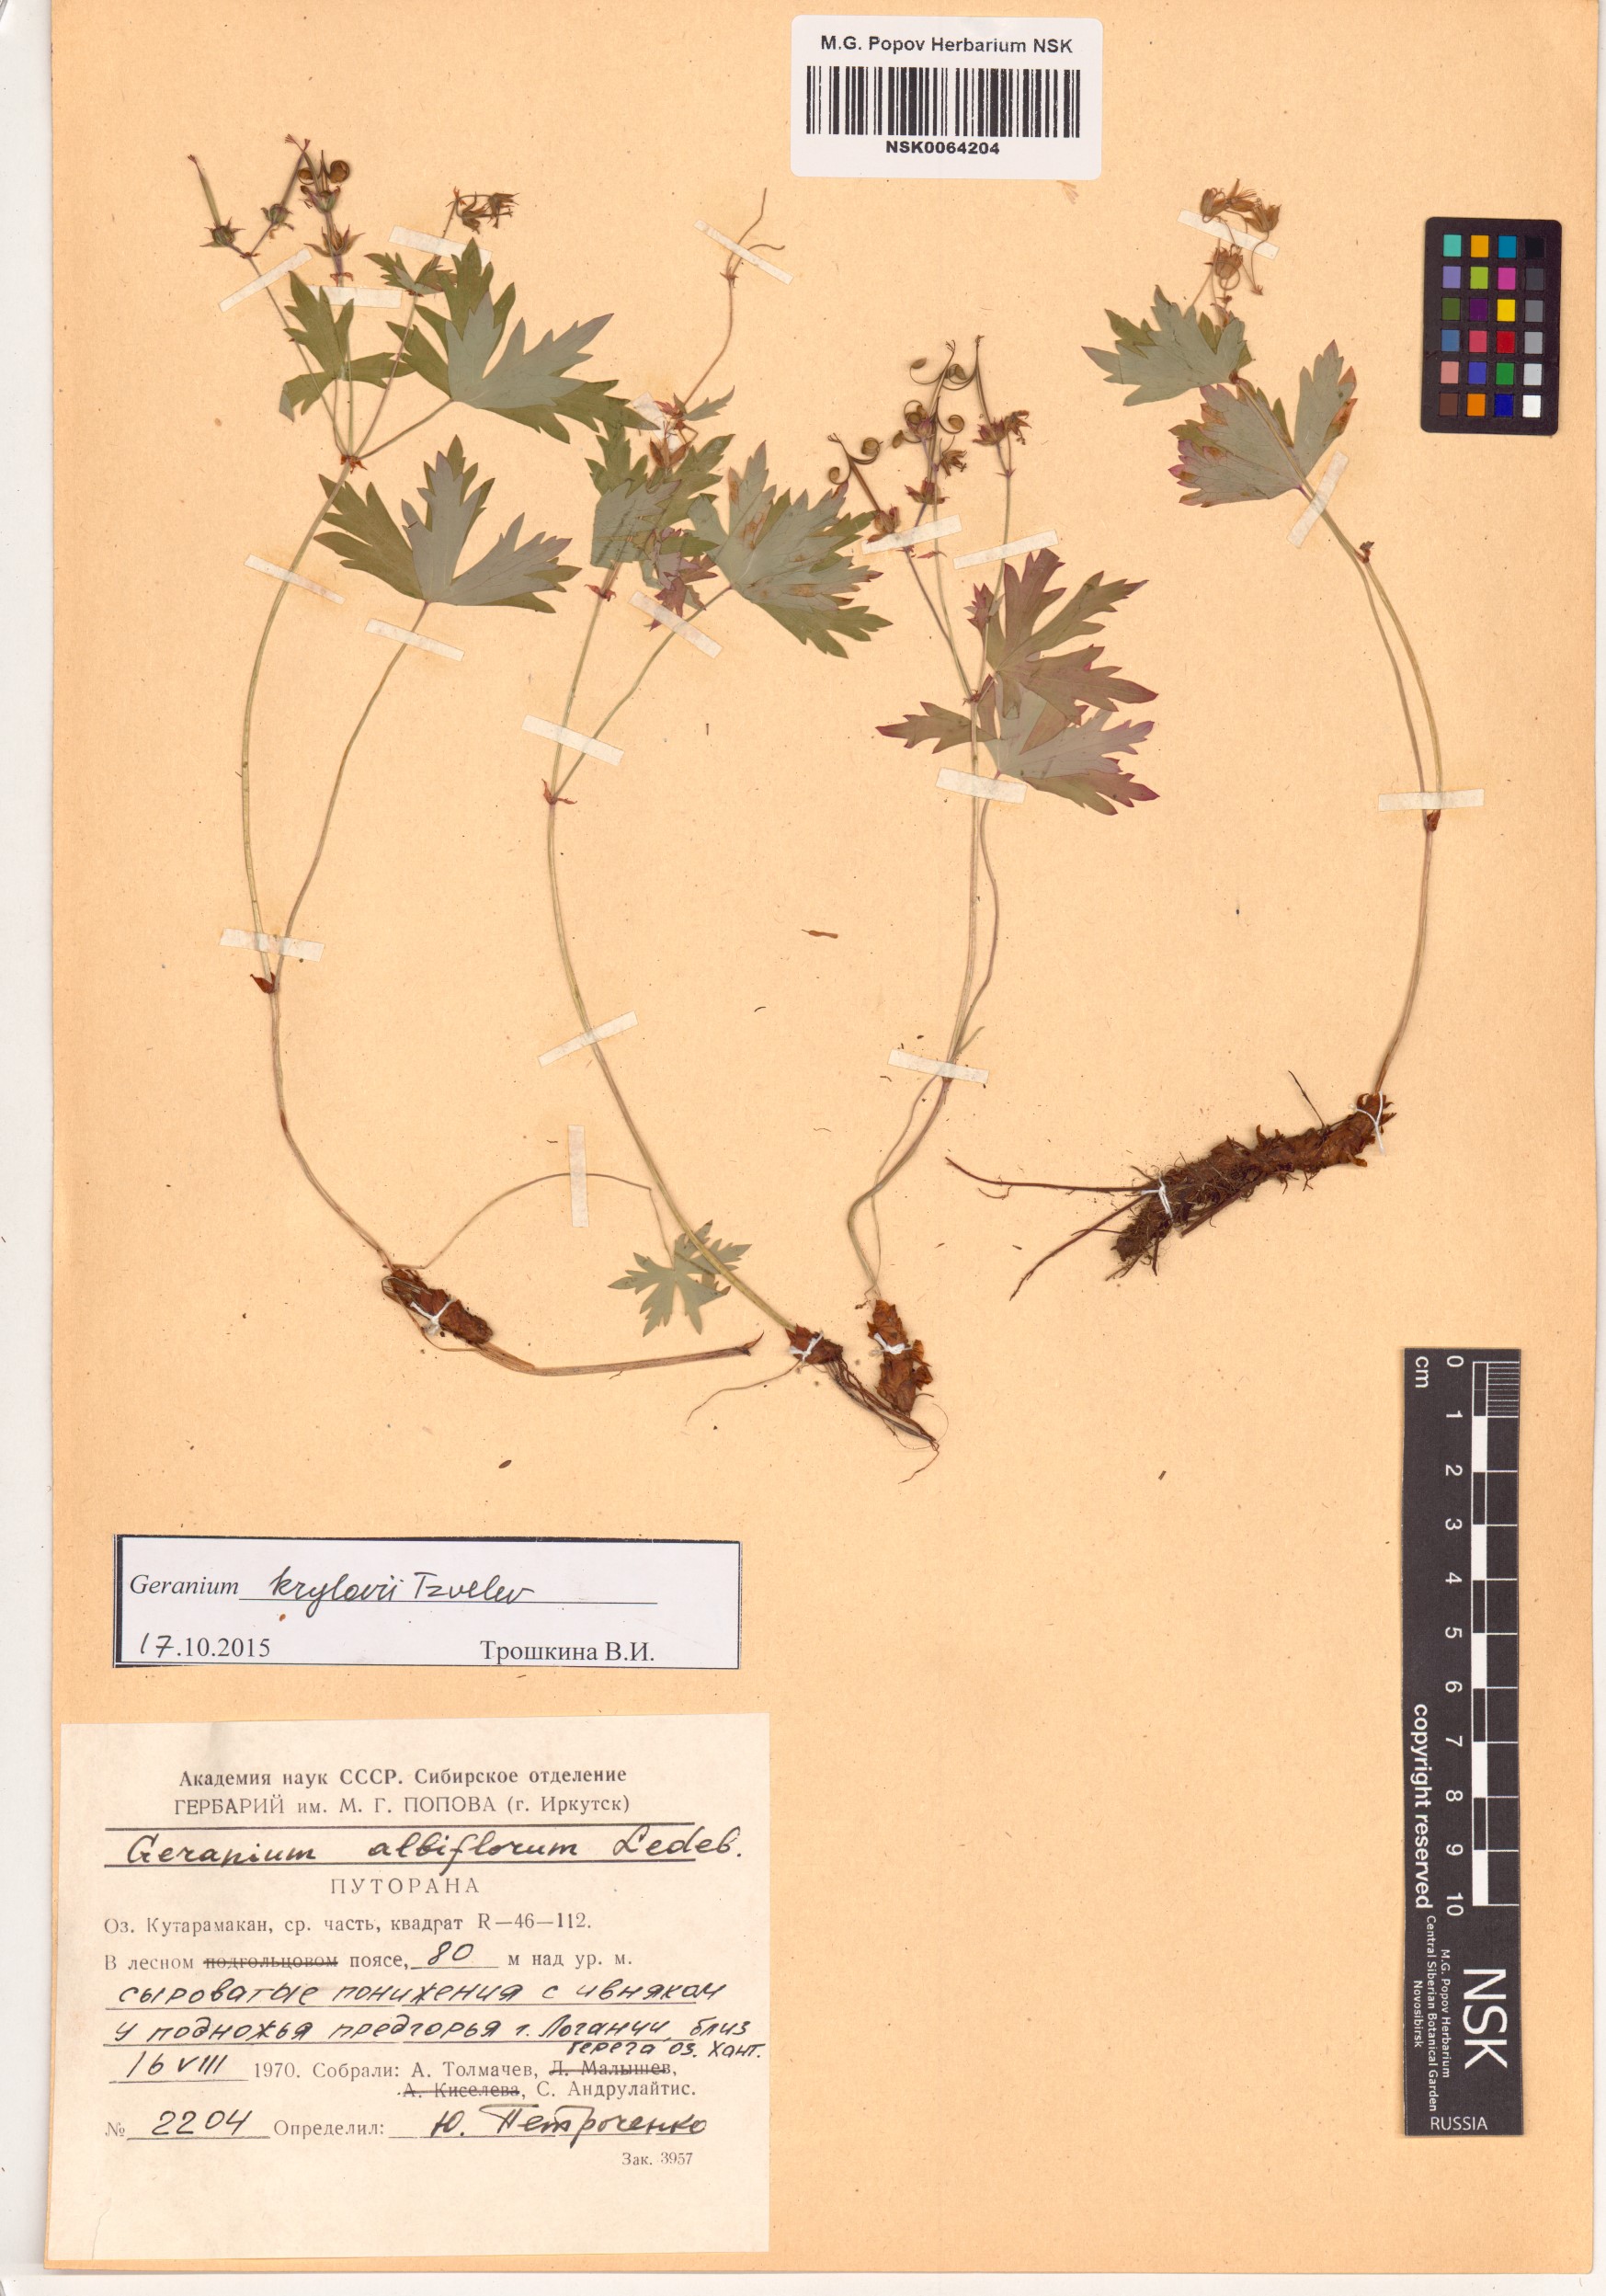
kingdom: Plantae
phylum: Tracheophyta
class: Magnoliopsida
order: Geraniales
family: Geraniaceae
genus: Geranium
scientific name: Geranium sylvaticum
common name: Wood crane's-bill
